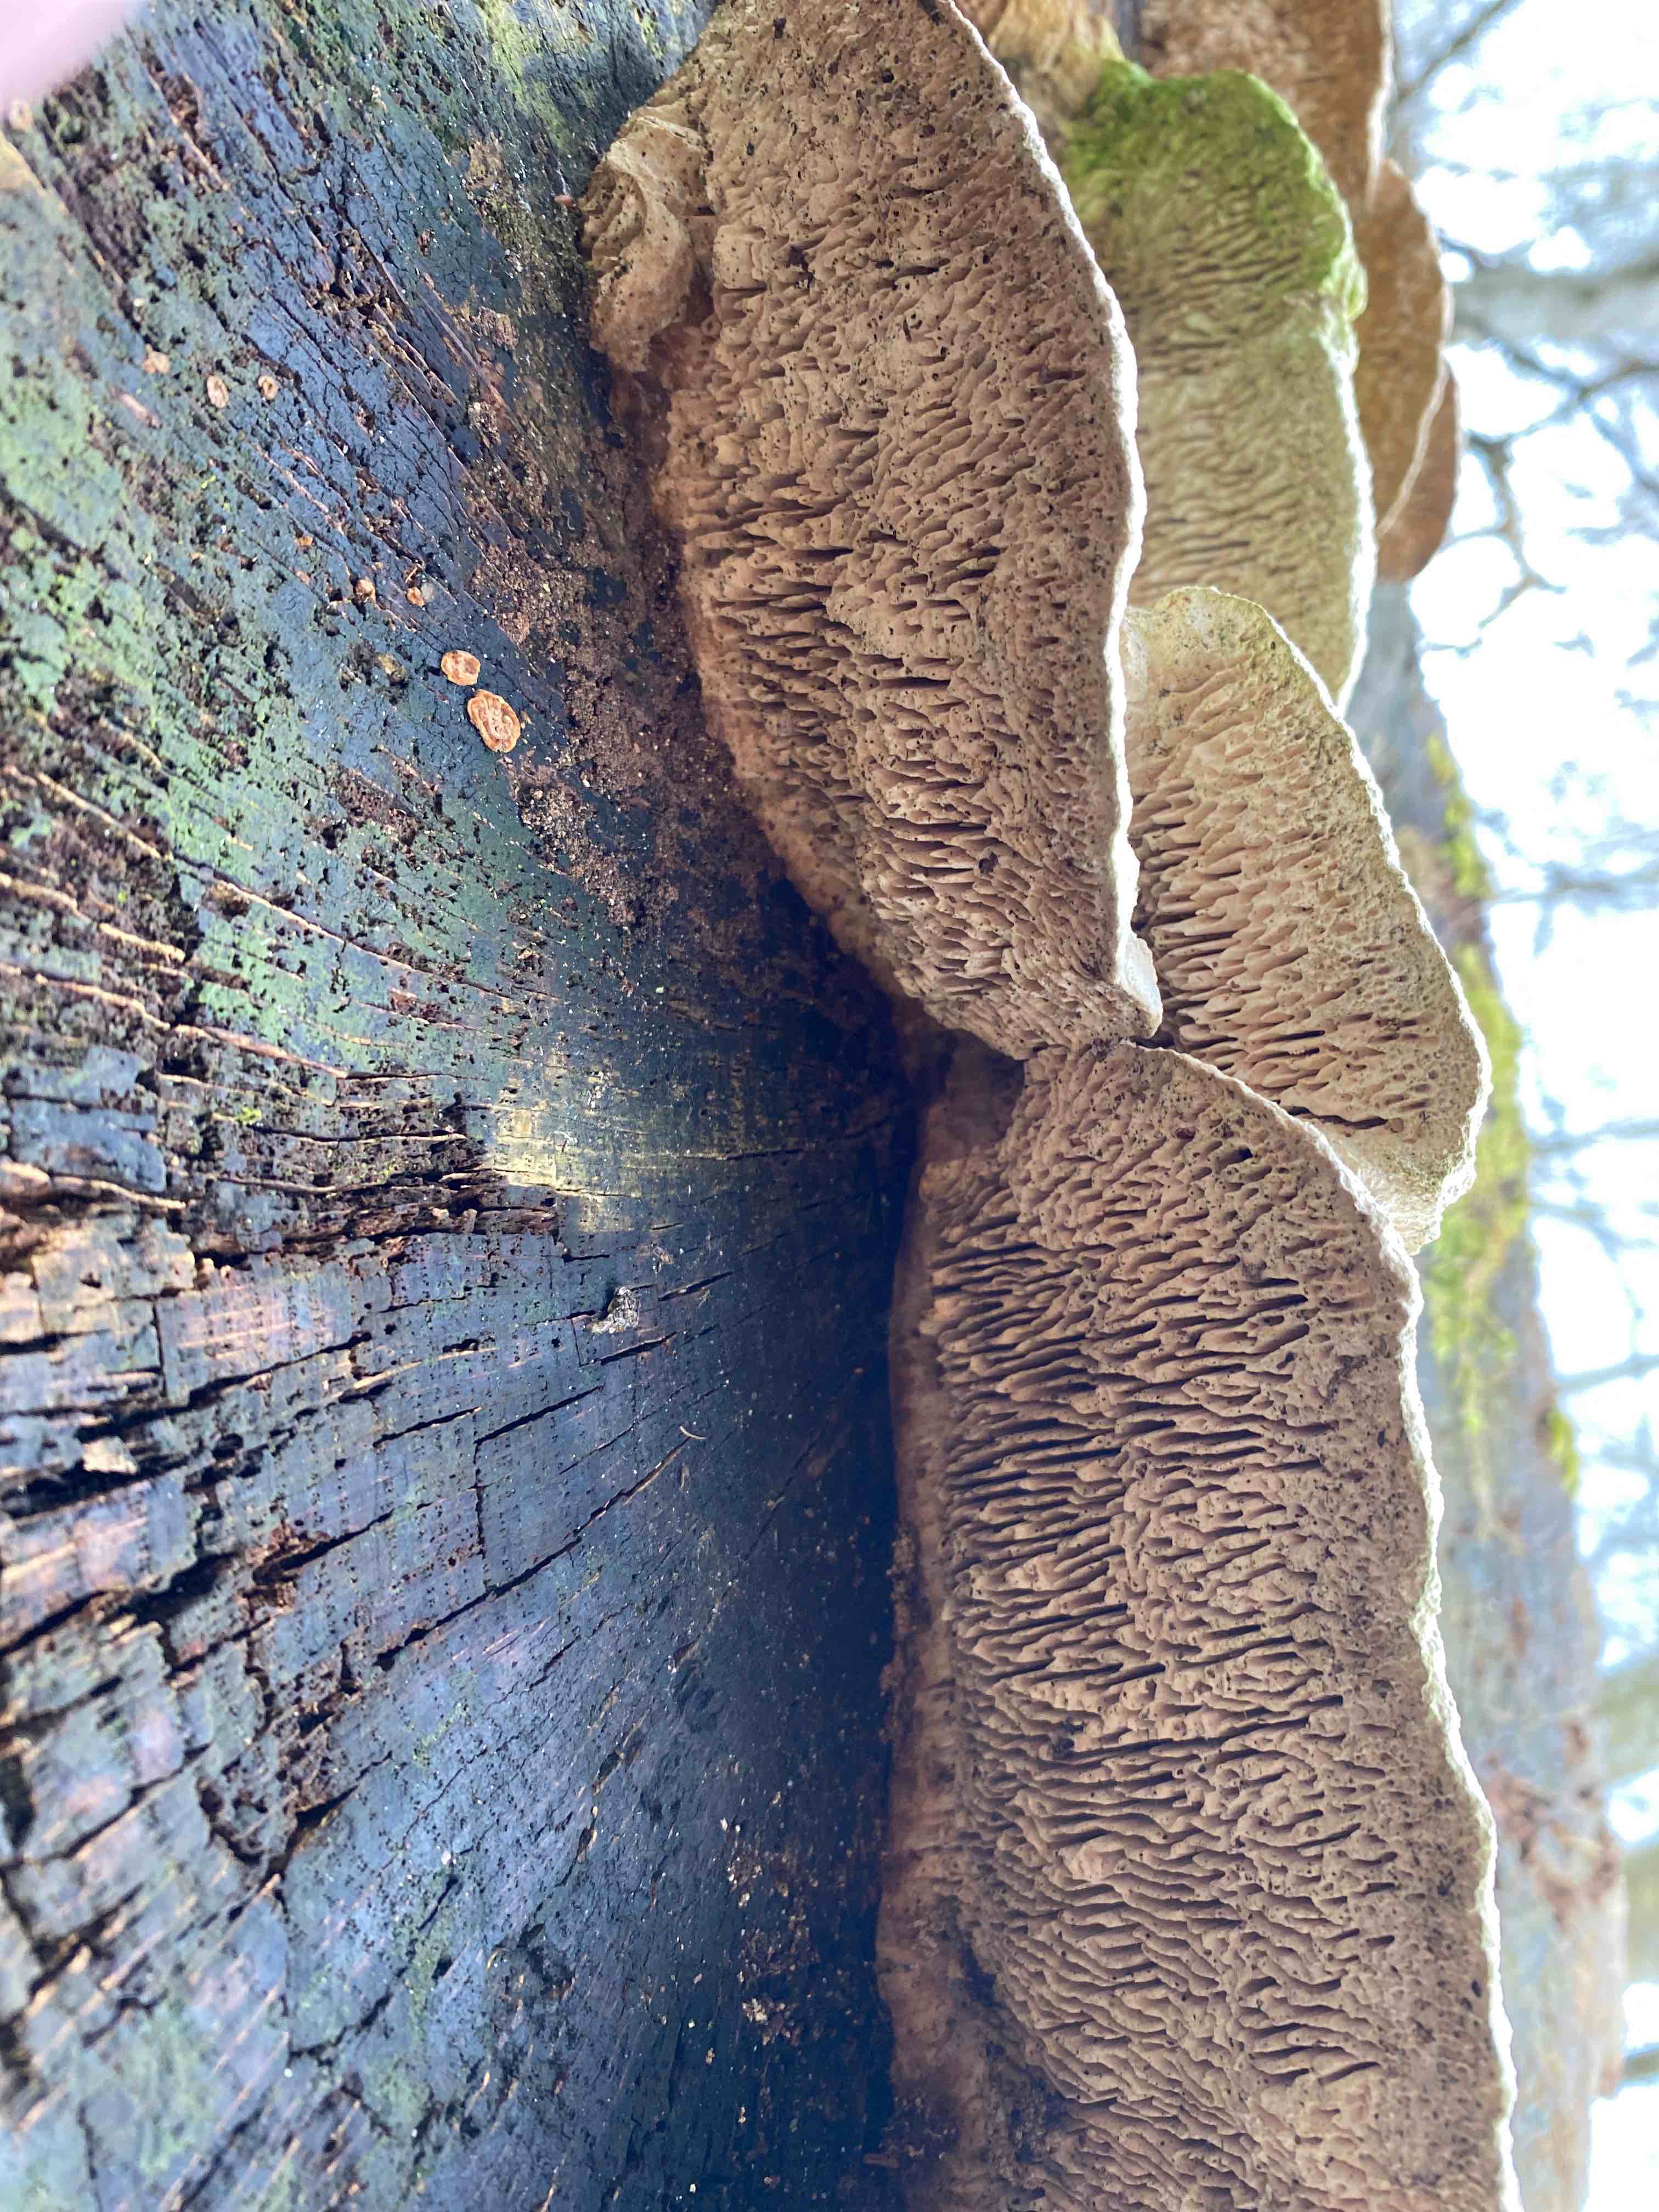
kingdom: Fungi
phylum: Basidiomycota
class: Agaricomycetes
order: Polyporales
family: Fomitopsidaceae
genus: Daedalea
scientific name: Daedalea quercina
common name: ege-labyrintsvamp
